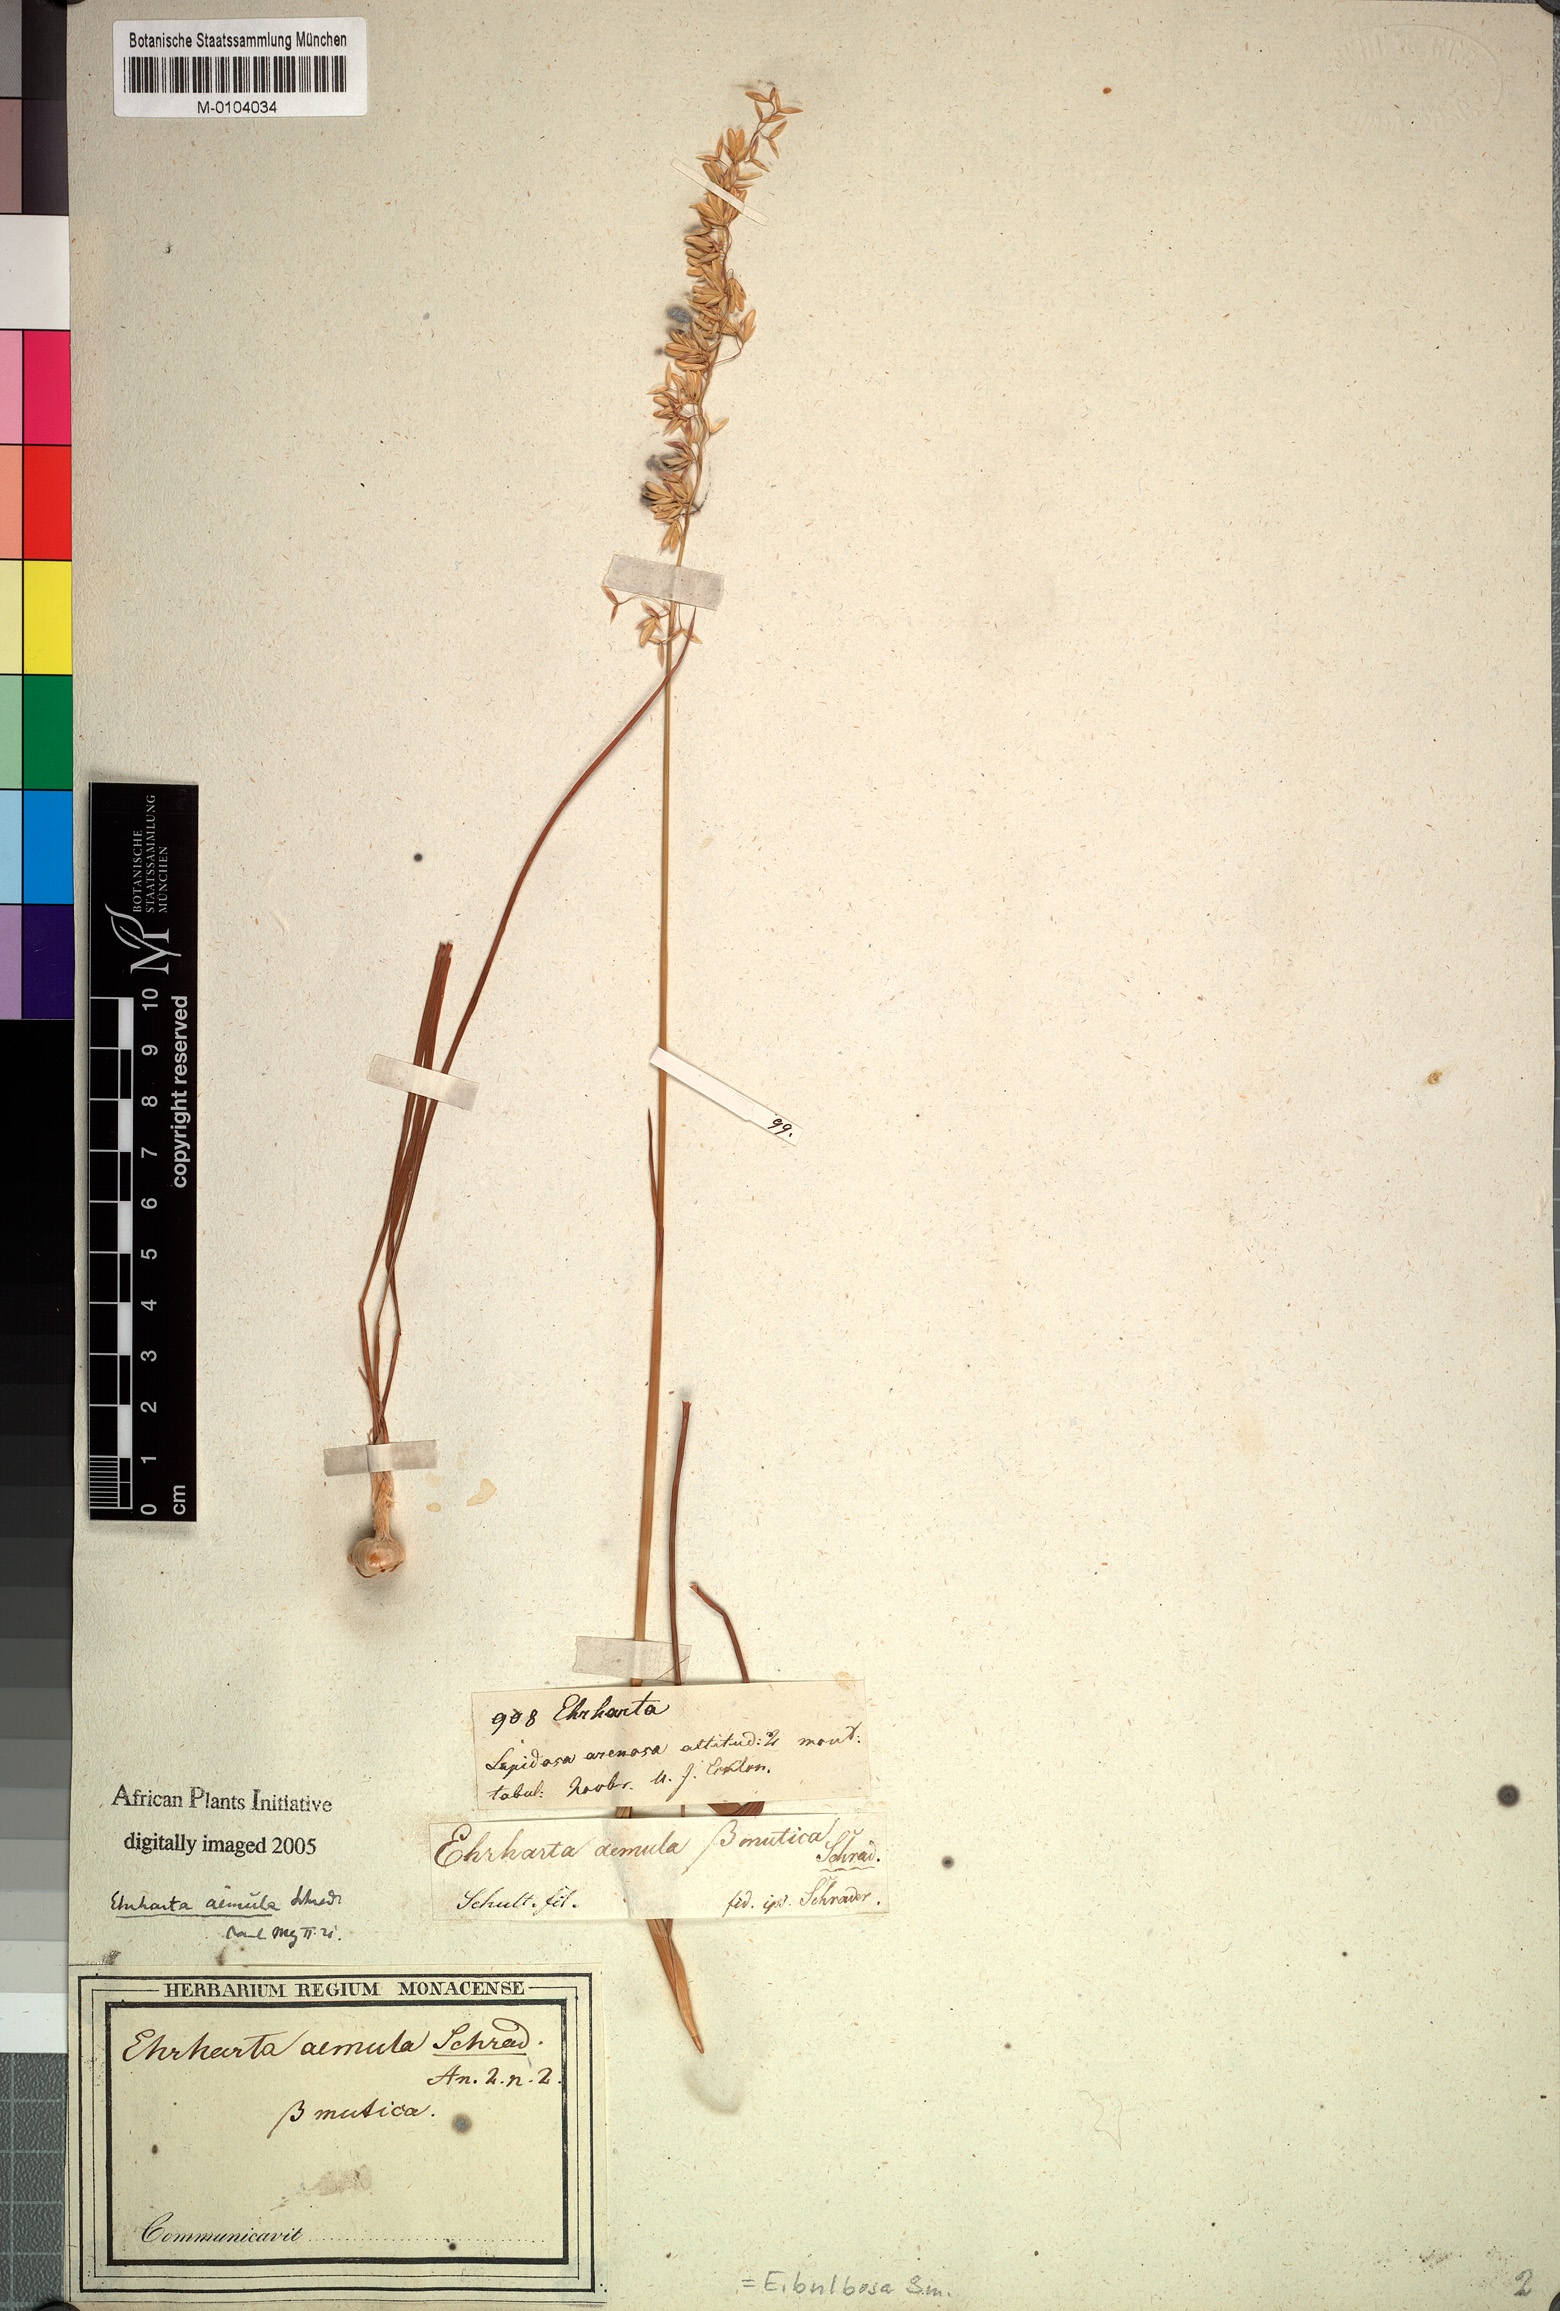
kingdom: Plantae
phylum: Tracheophyta
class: Liliopsida
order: Poales
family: Poaceae
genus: Ehrharta
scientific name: Ehrharta bulbosa
